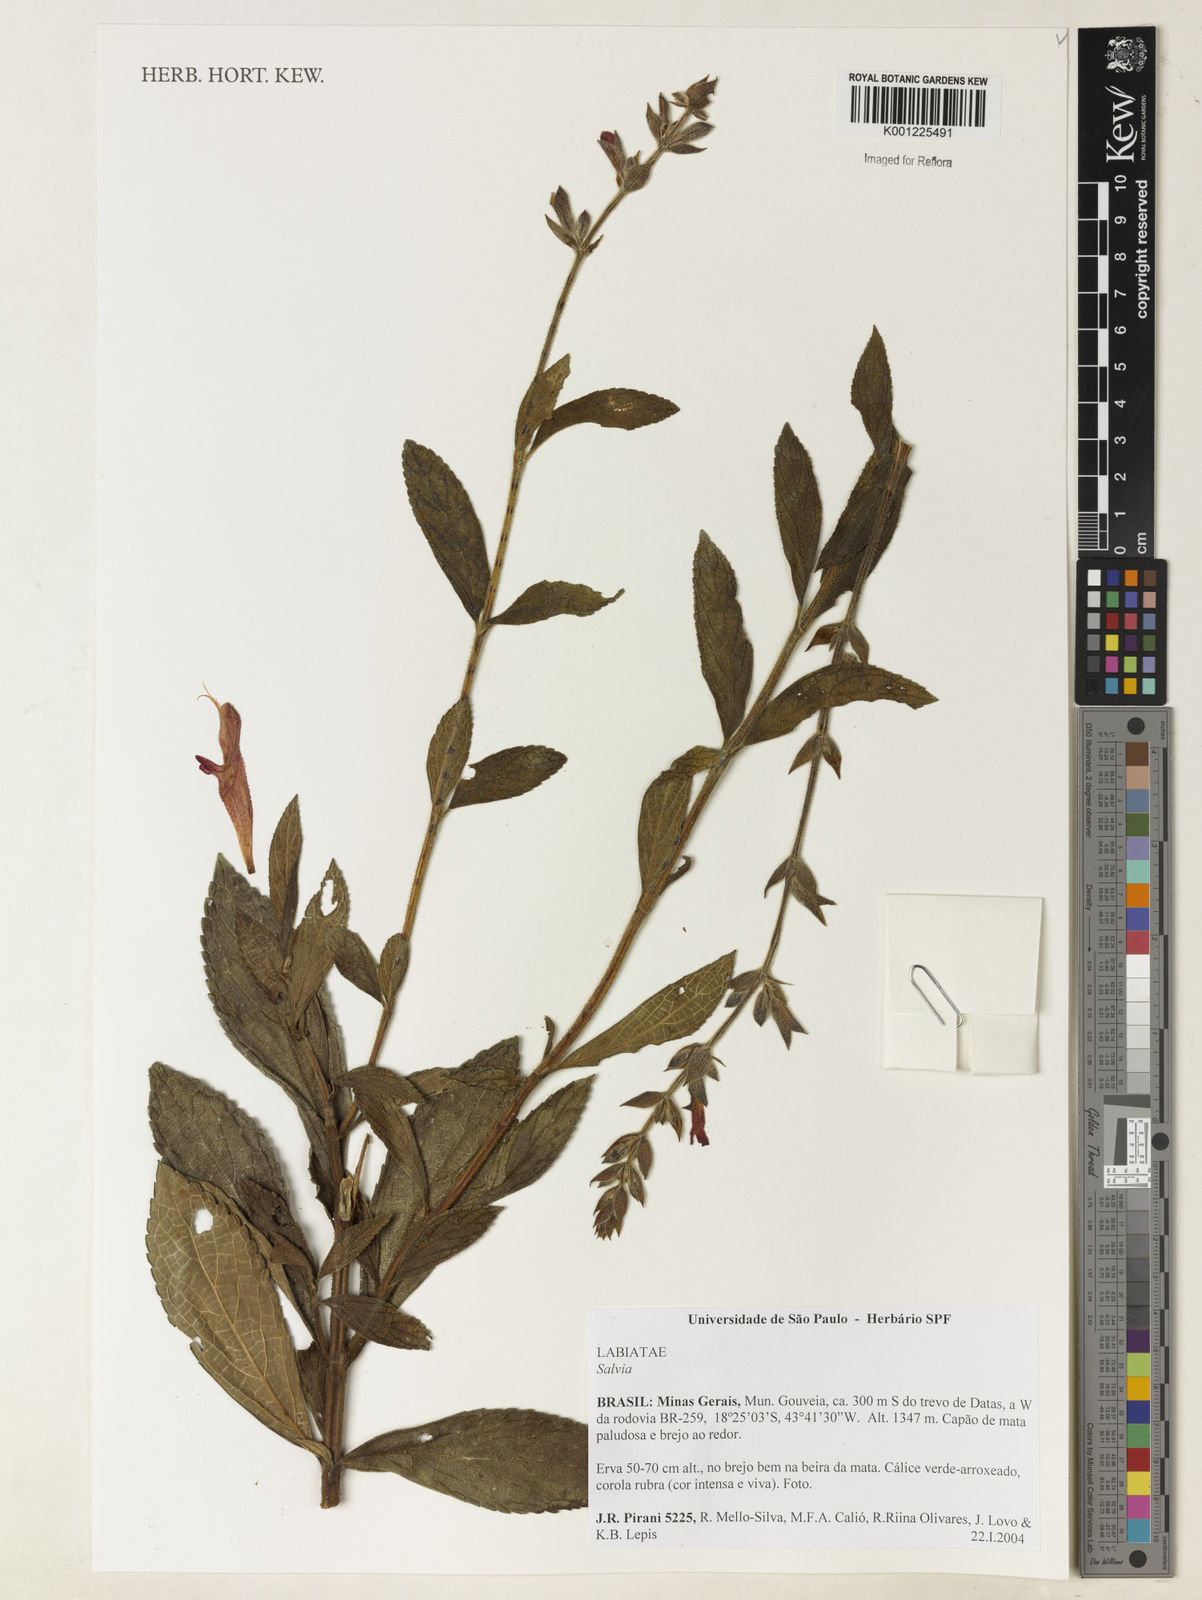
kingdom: Plantae
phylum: Tracheophyta
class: Magnoliopsida
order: Lamiales
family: Lamiaceae
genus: Salvia
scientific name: Salvia
